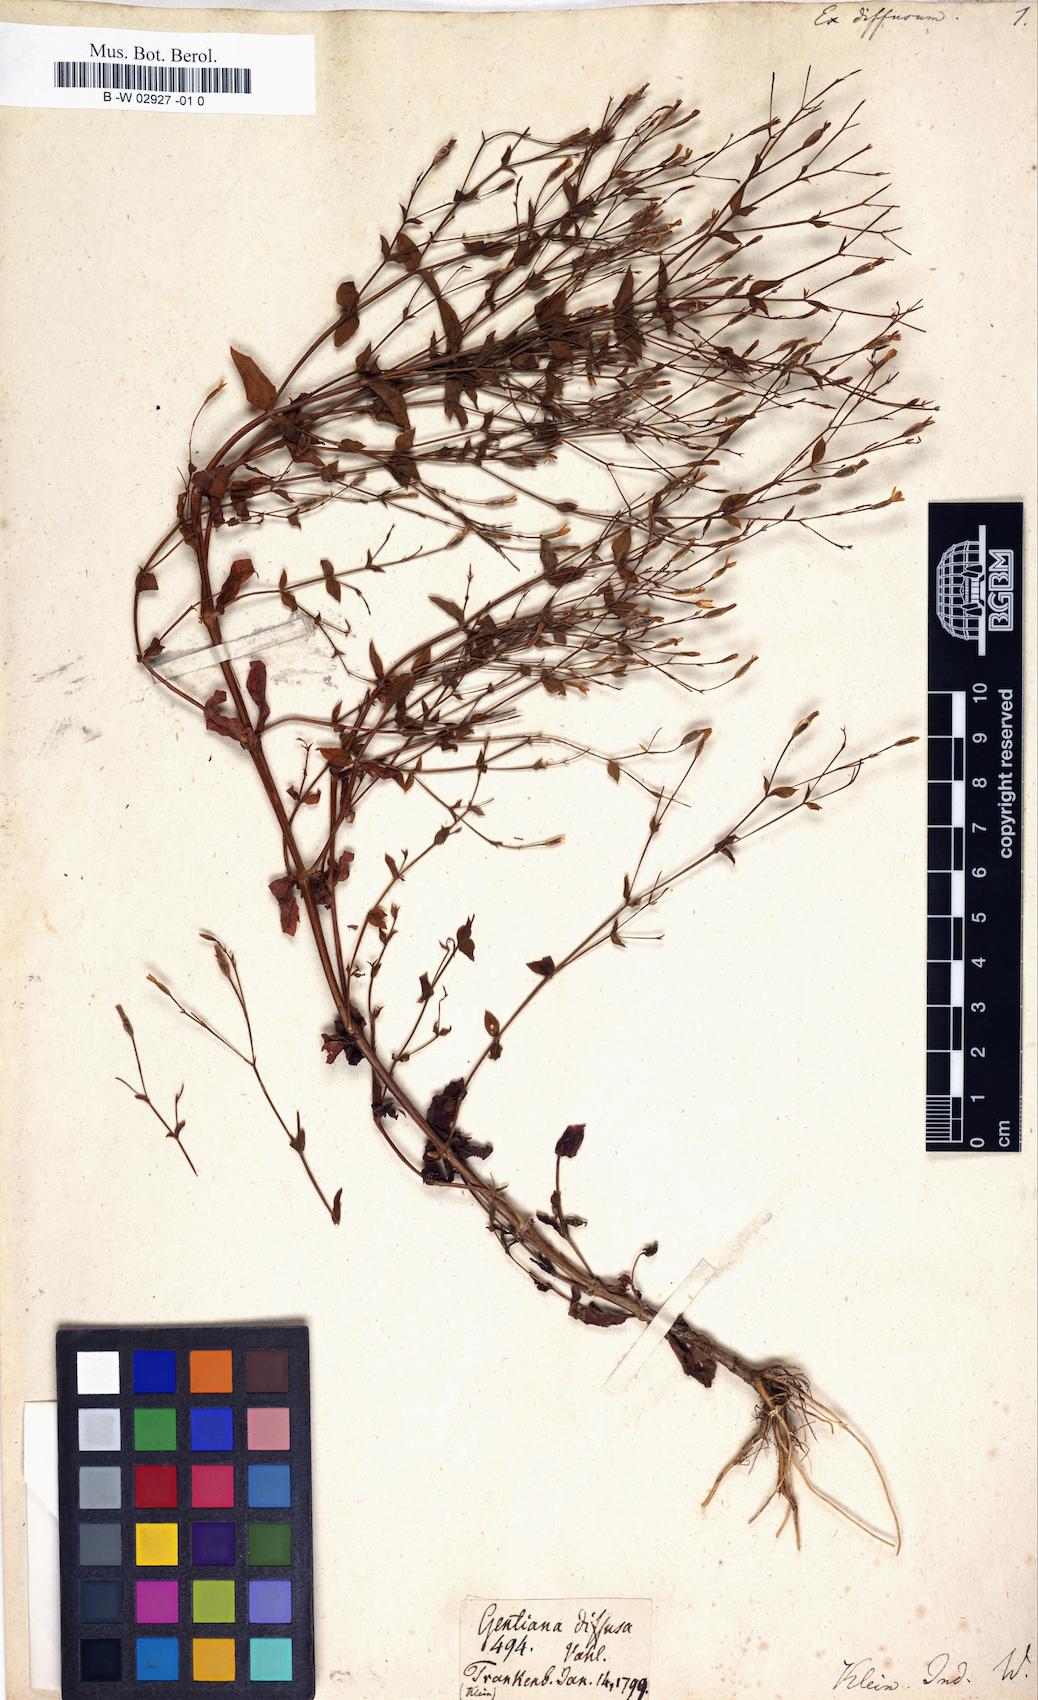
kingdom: Plantae
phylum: Tracheophyta
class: Magnoliopsida
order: Gentianales
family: Gentianaceae
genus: Canscora
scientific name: Canscora diffusa
